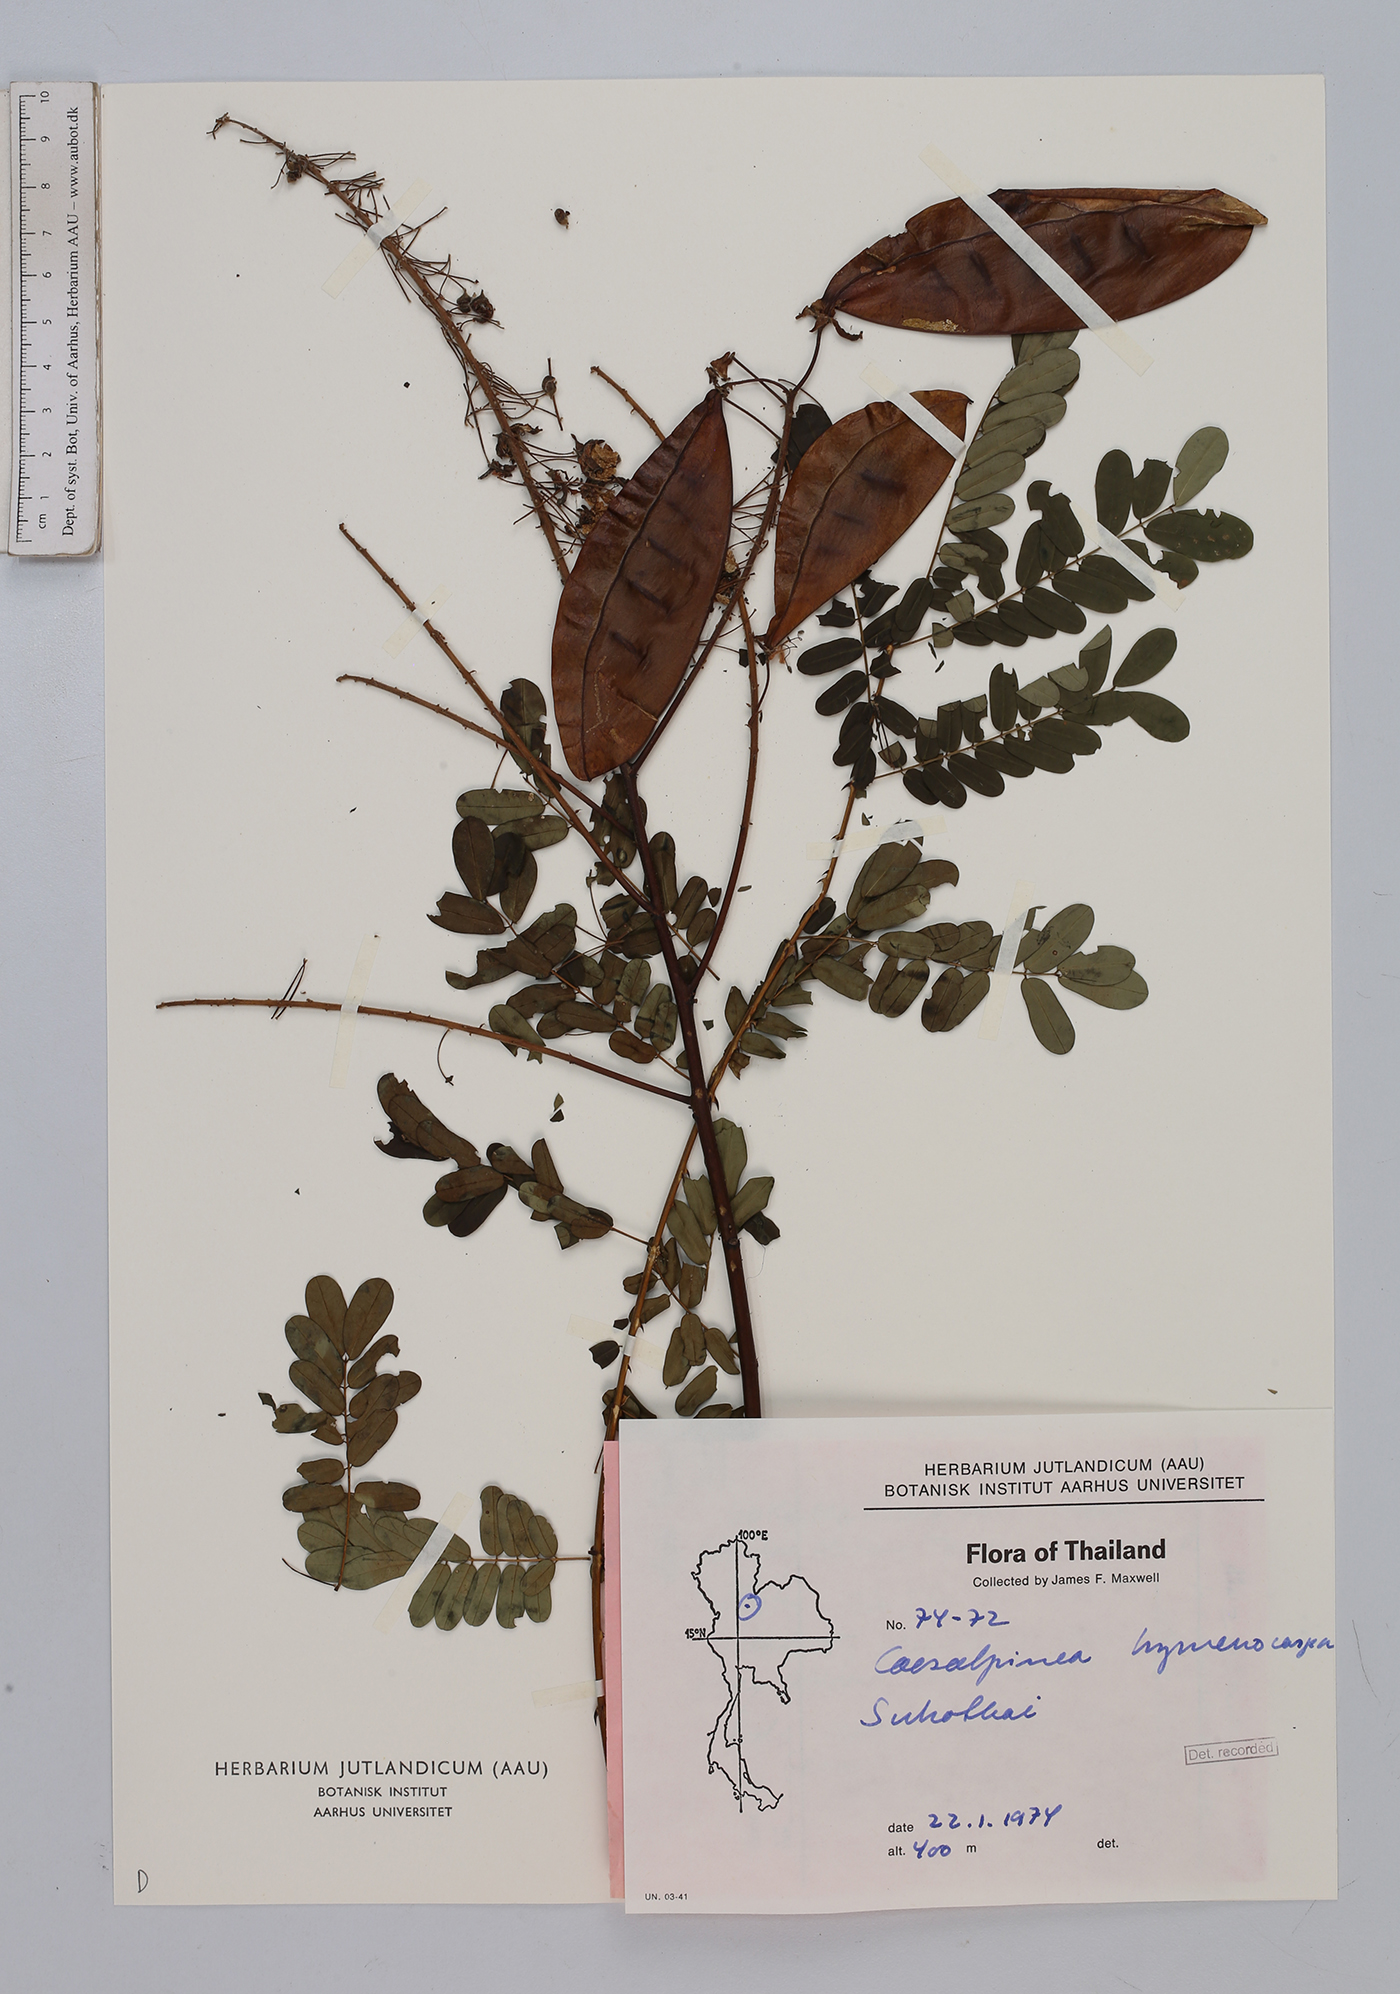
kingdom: Plantae
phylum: Tracheophyta
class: Magnoliopsida
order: Fabales
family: Fabaceae
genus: Mezoneuron
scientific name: Mezoneuron hymenocarpum
